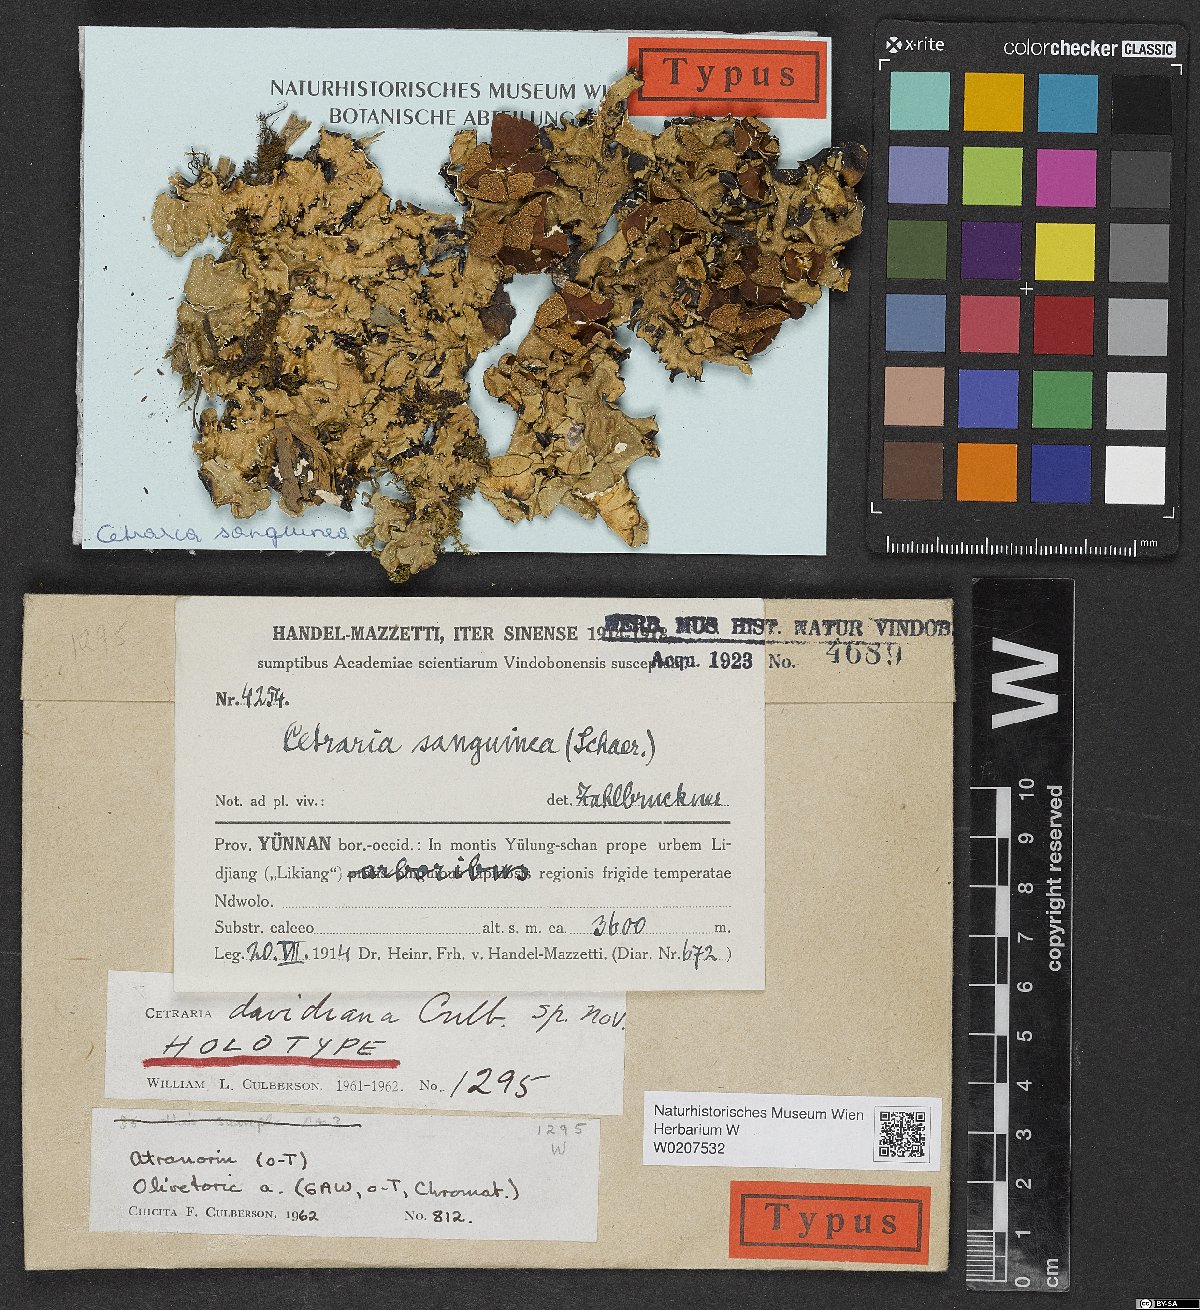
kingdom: Fungi
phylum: Ascomycota
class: Lecanoromycetes
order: Lecanorales
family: Parmeliaceae
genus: Cetrelia
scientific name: Cetrelia davidiana
